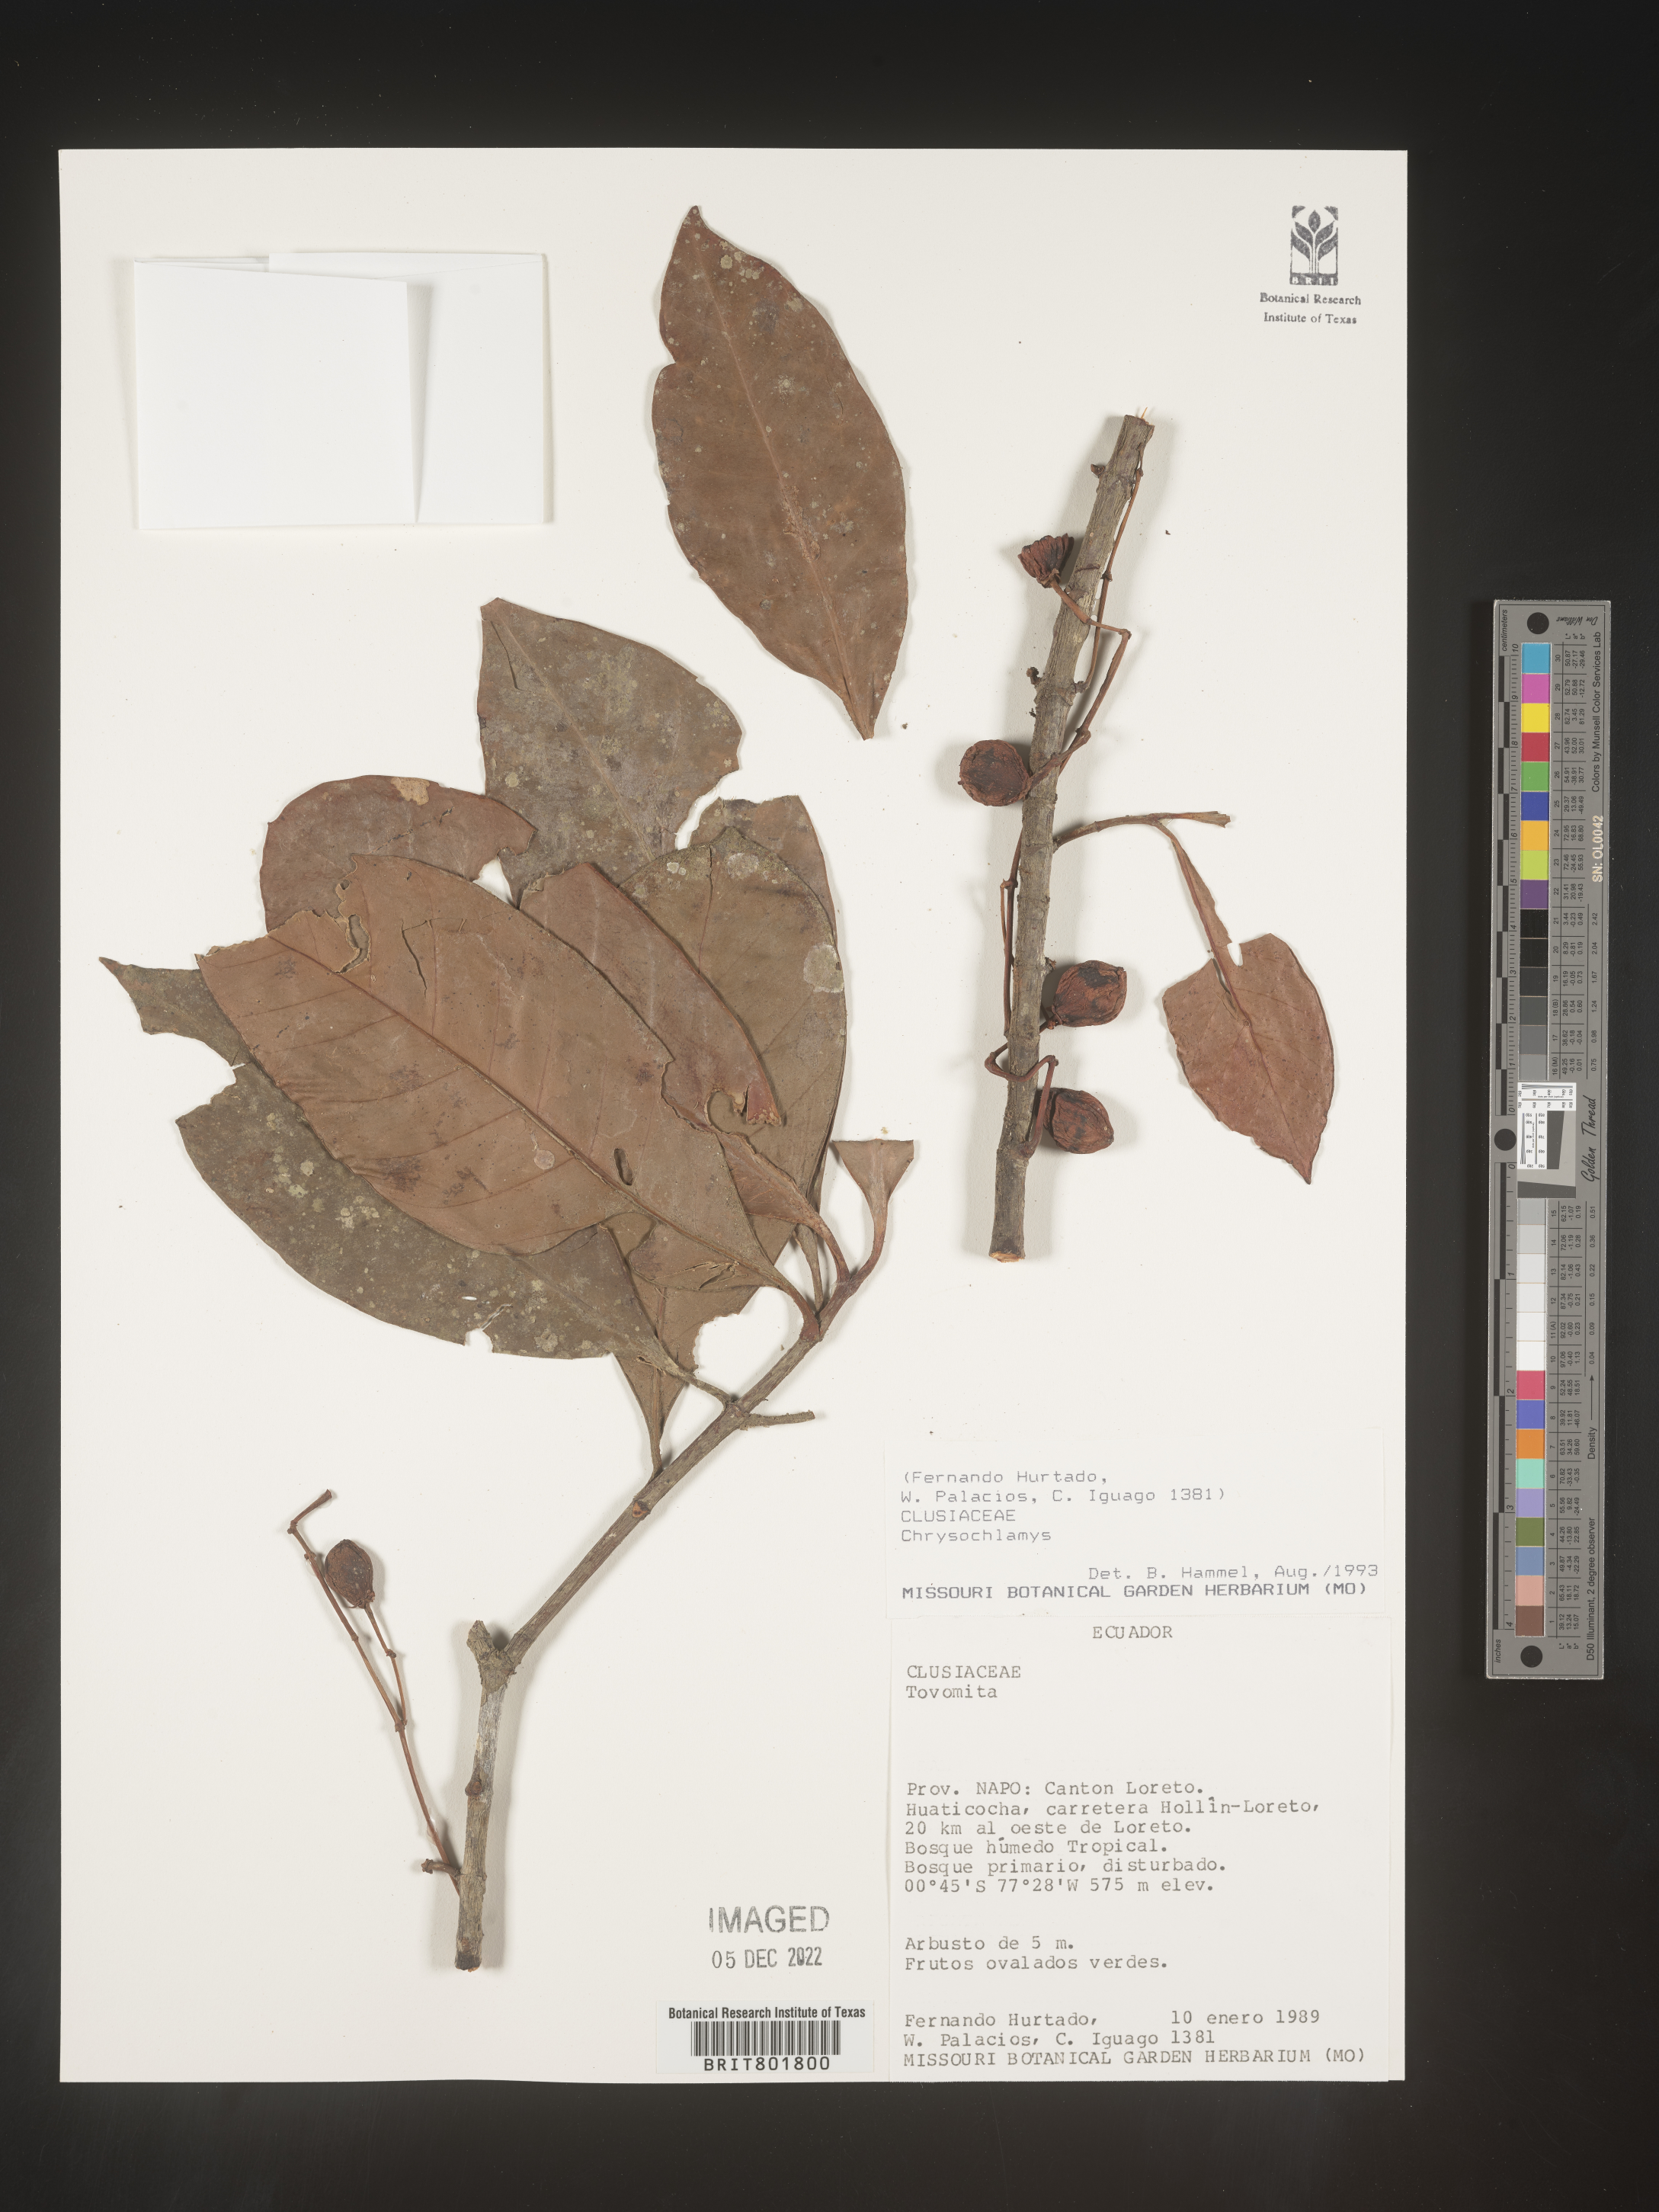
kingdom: Plantae
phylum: Tracheophyta
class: Magnoliopsida
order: Malpighiales
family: Clusiaceae
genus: Chrysochlamys
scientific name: Chrysochlamys
